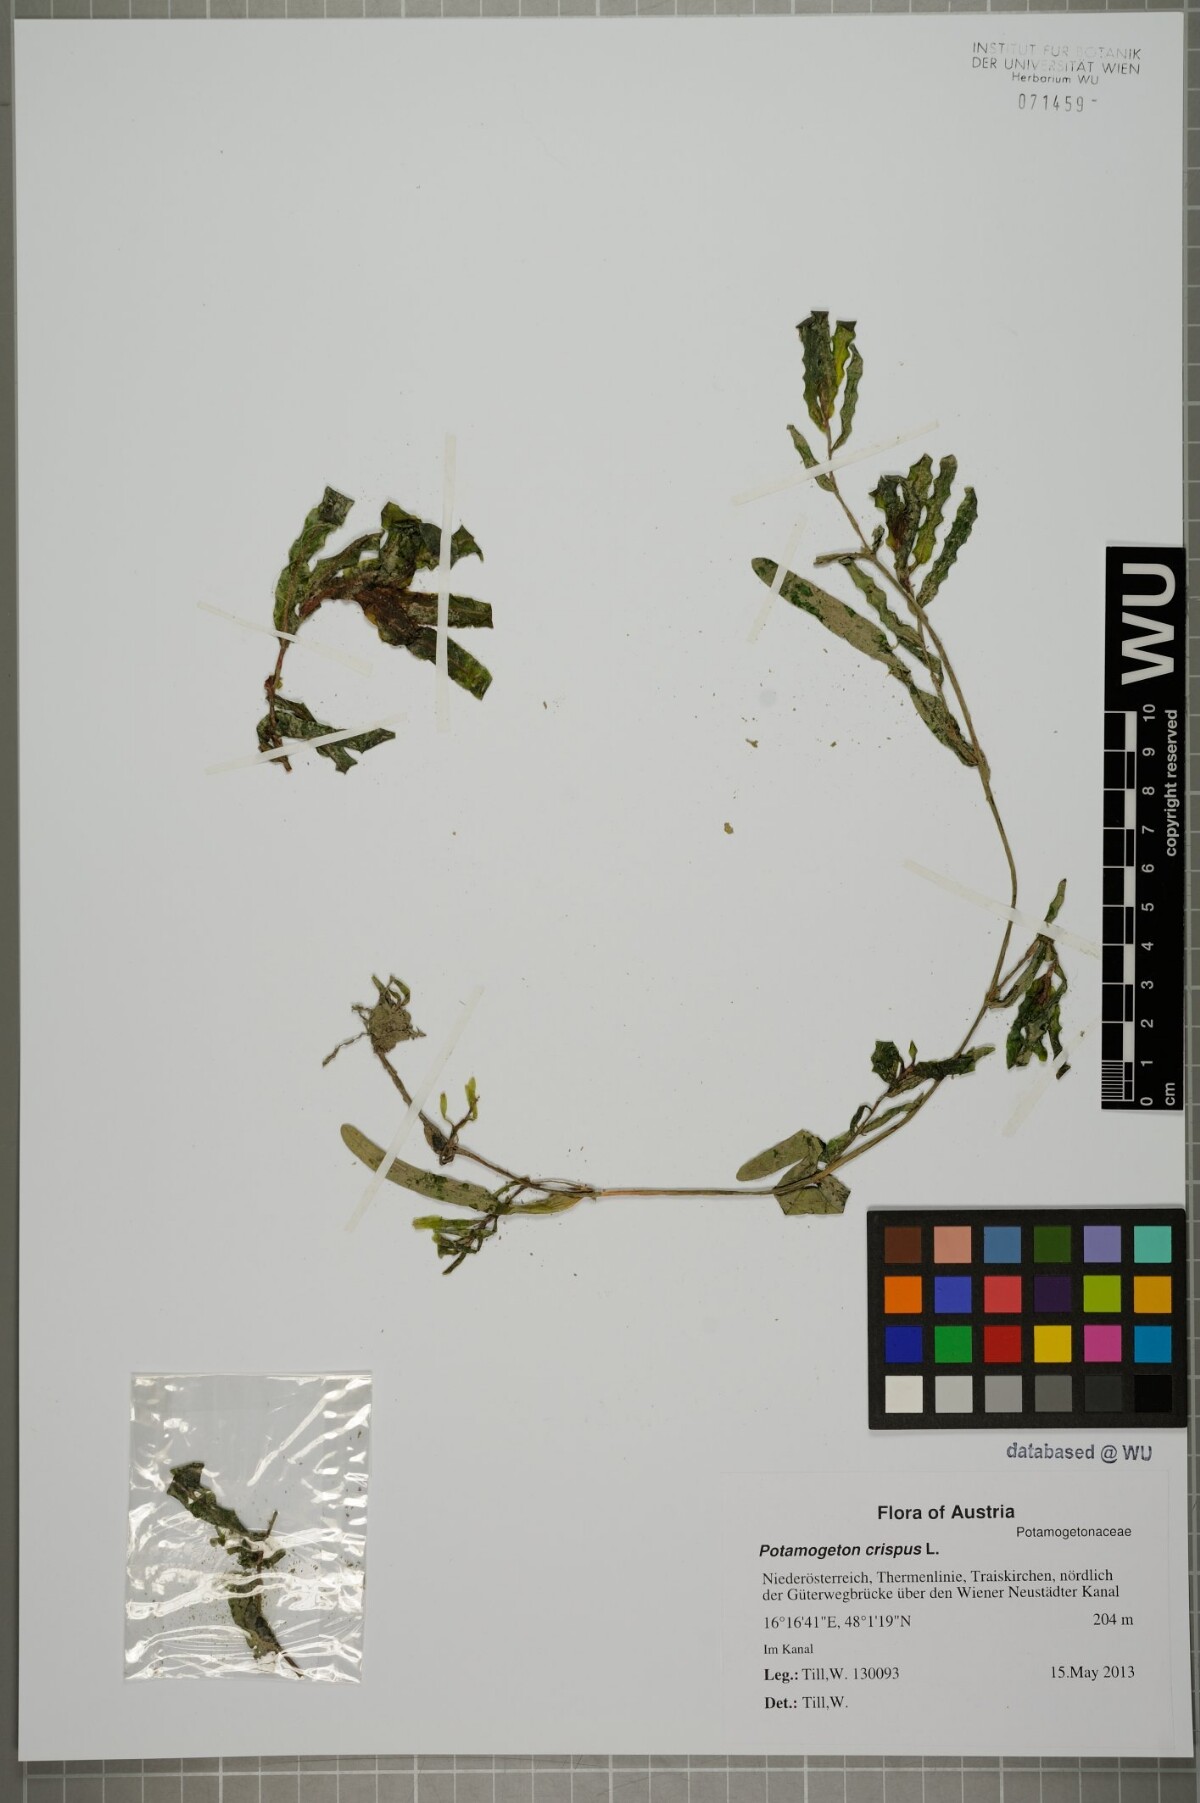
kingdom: Plantae
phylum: Tracheophyta
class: Liliopsida
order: Alismatales
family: Potamogetonaceae
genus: Potamogeton
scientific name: Potamogeton crispus
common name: Curled pondweed
